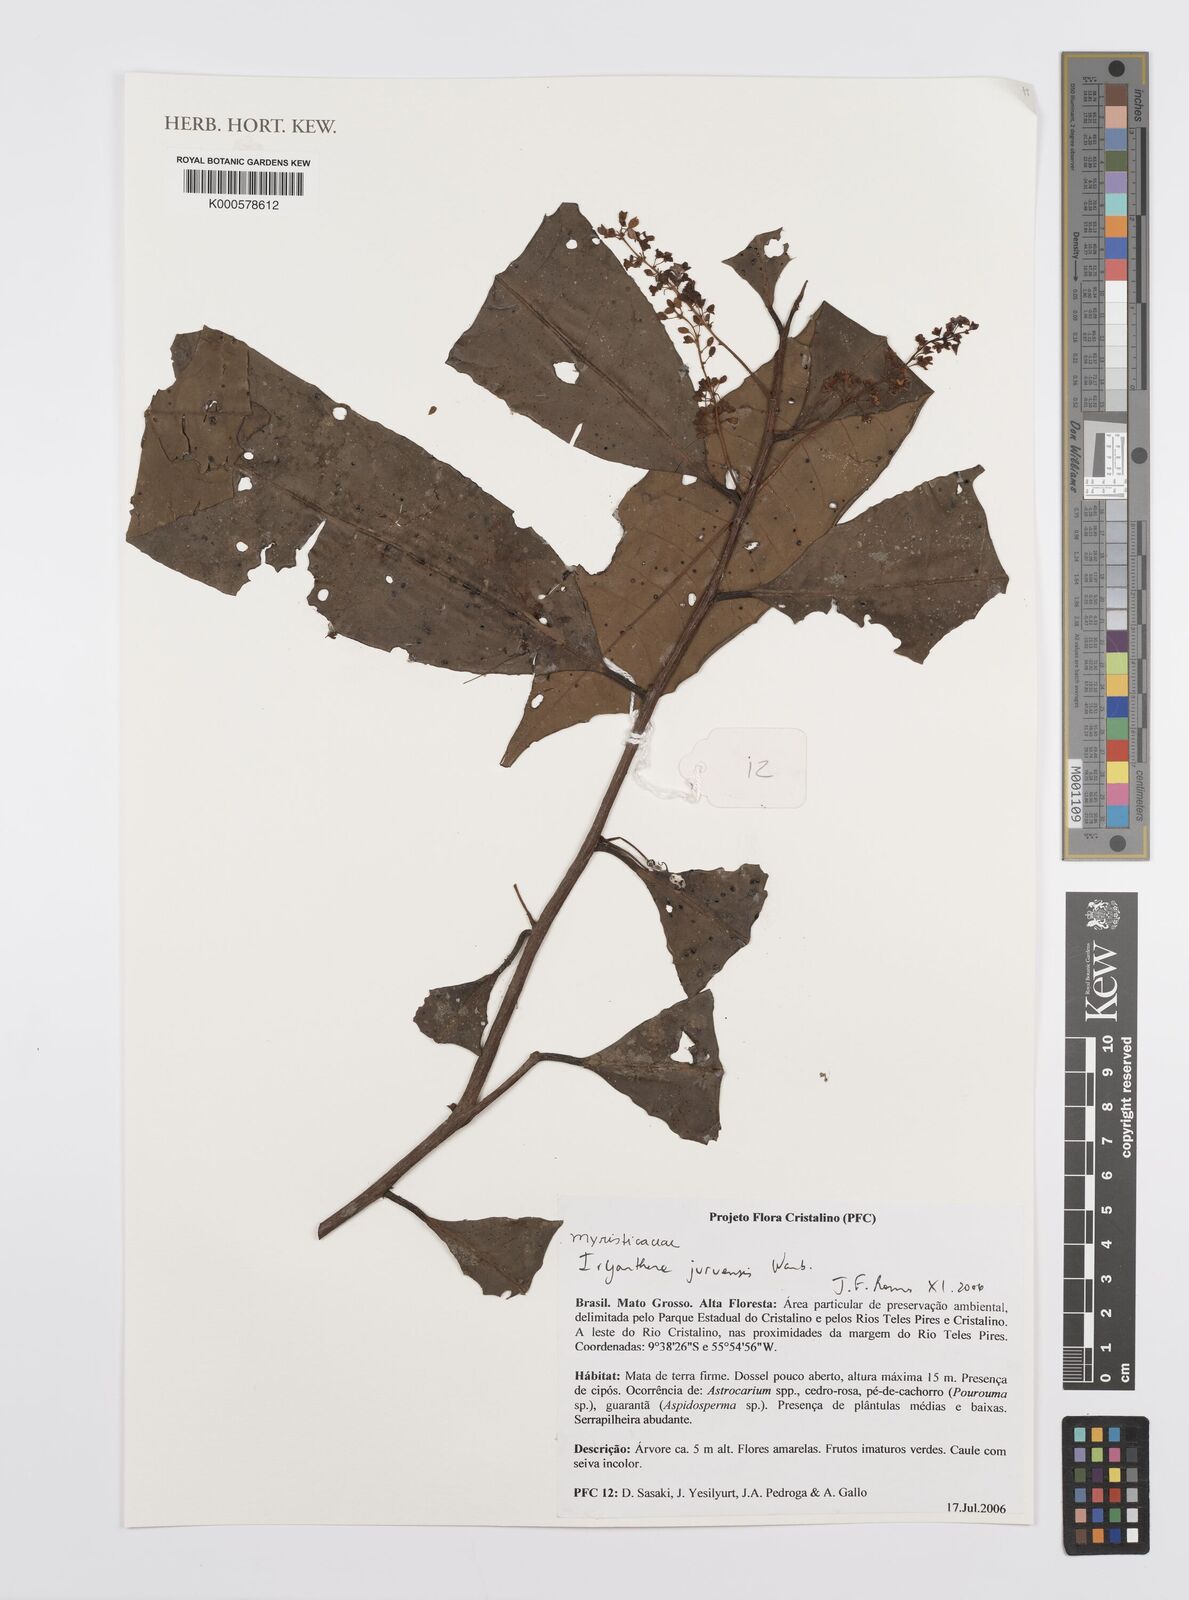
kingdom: Plantae
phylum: Tracheophyta
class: Magnoliopsida
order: Magnoliales
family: Myristicaceae
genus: Iryanthera
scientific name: Iryanthera juruensis
